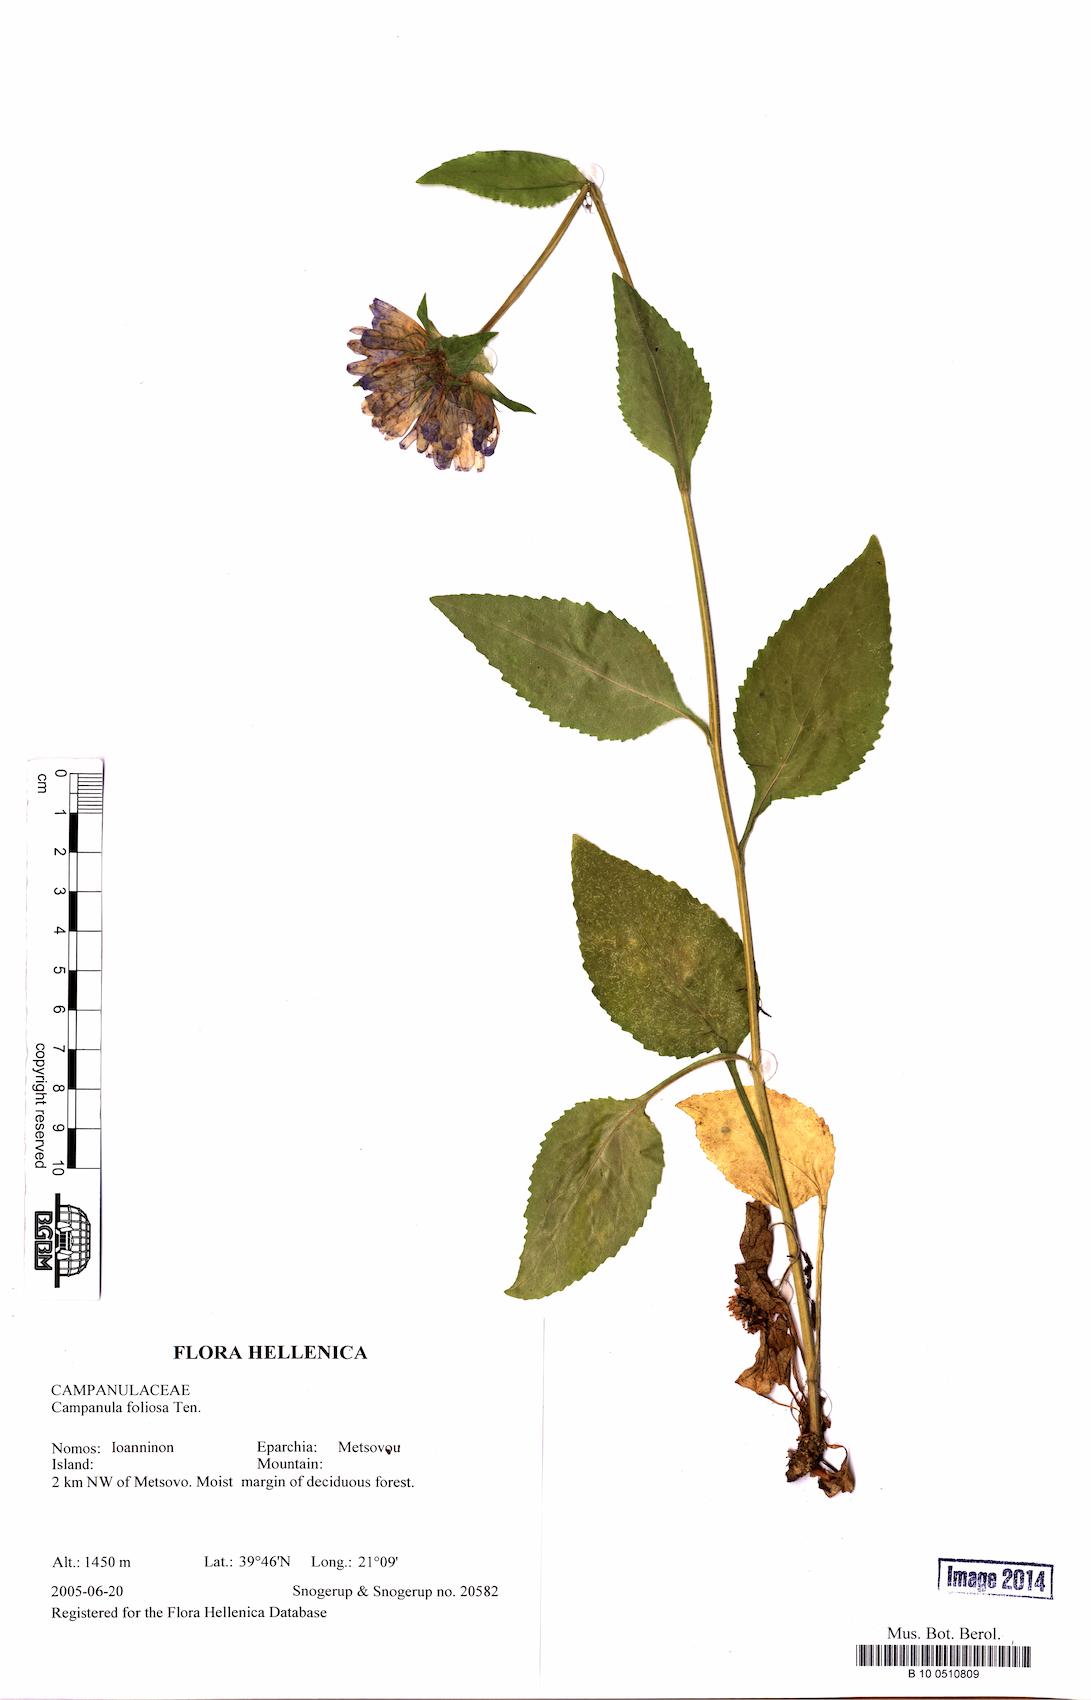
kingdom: Plantae
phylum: Tracheophyta
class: Magnoliopsida
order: Asterales
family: Campanulaceae
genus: Campanula
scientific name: Campanula foliosa
